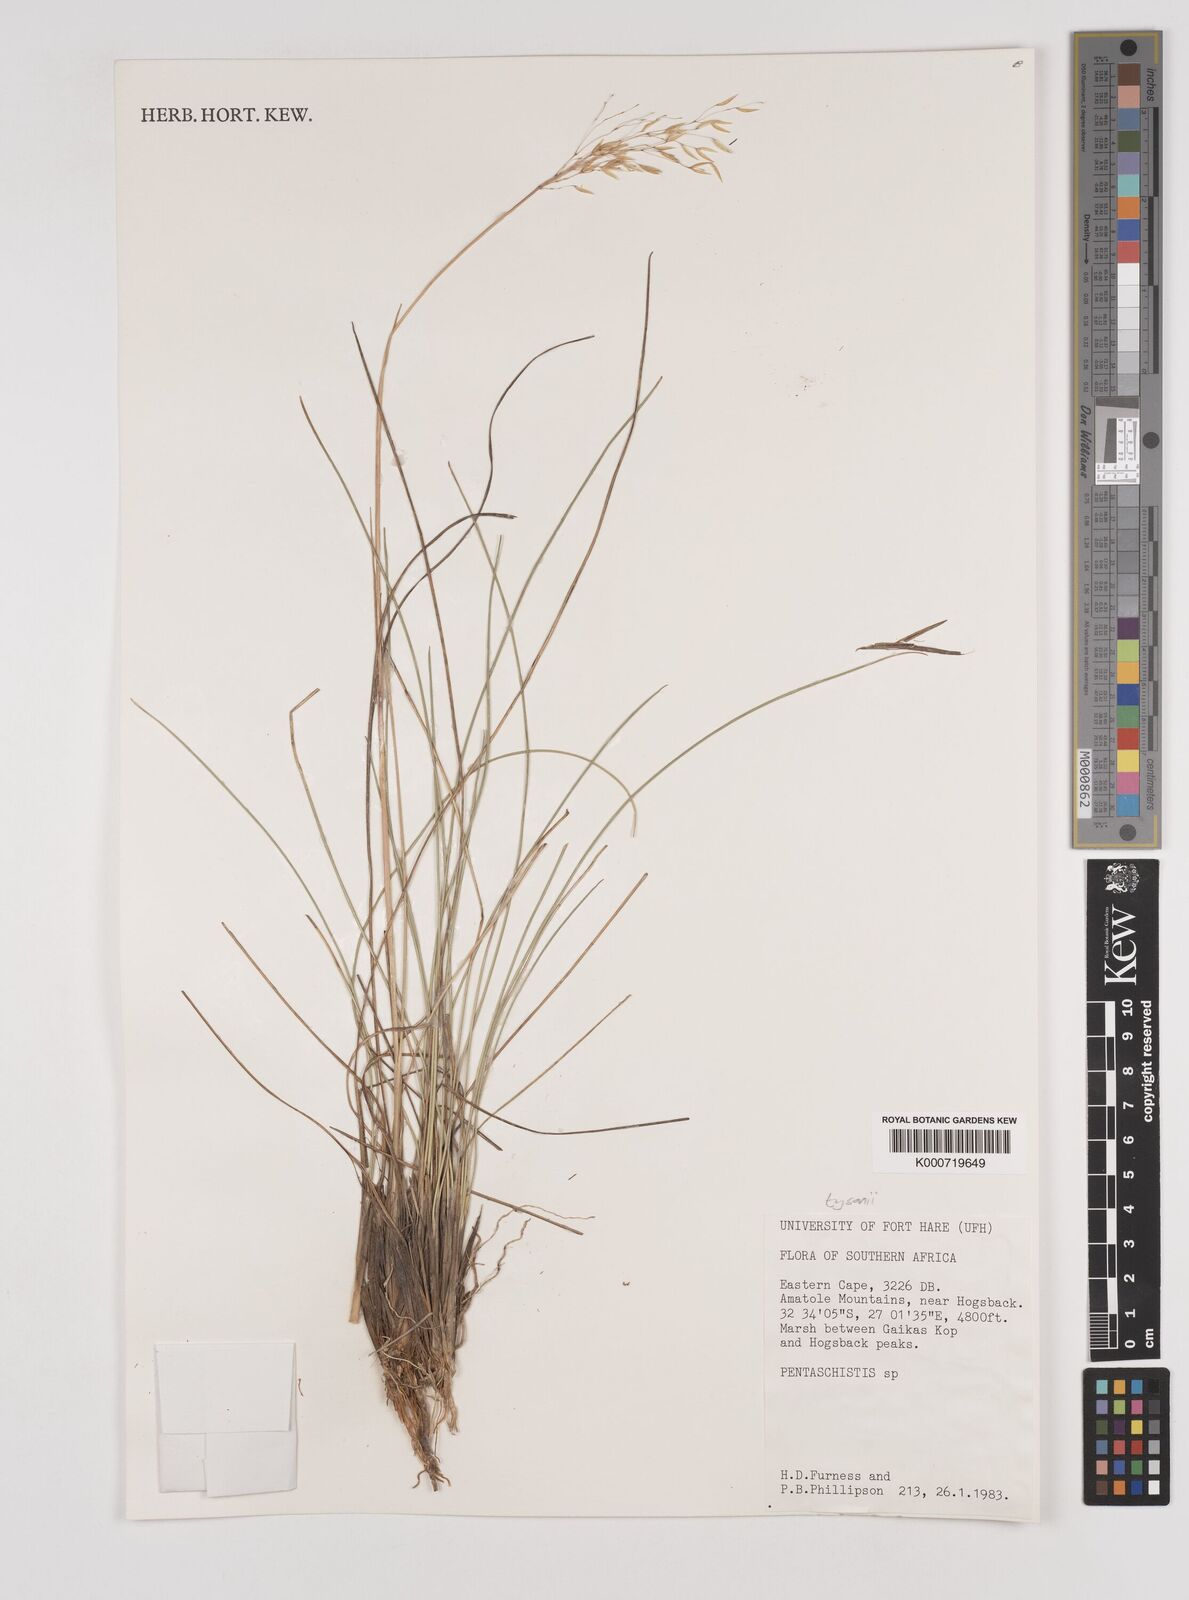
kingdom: Plantae
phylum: Tracheophyta
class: Liliopsida
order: Poales
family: Poaceae
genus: Pentameris
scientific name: Pentameris tysonii
